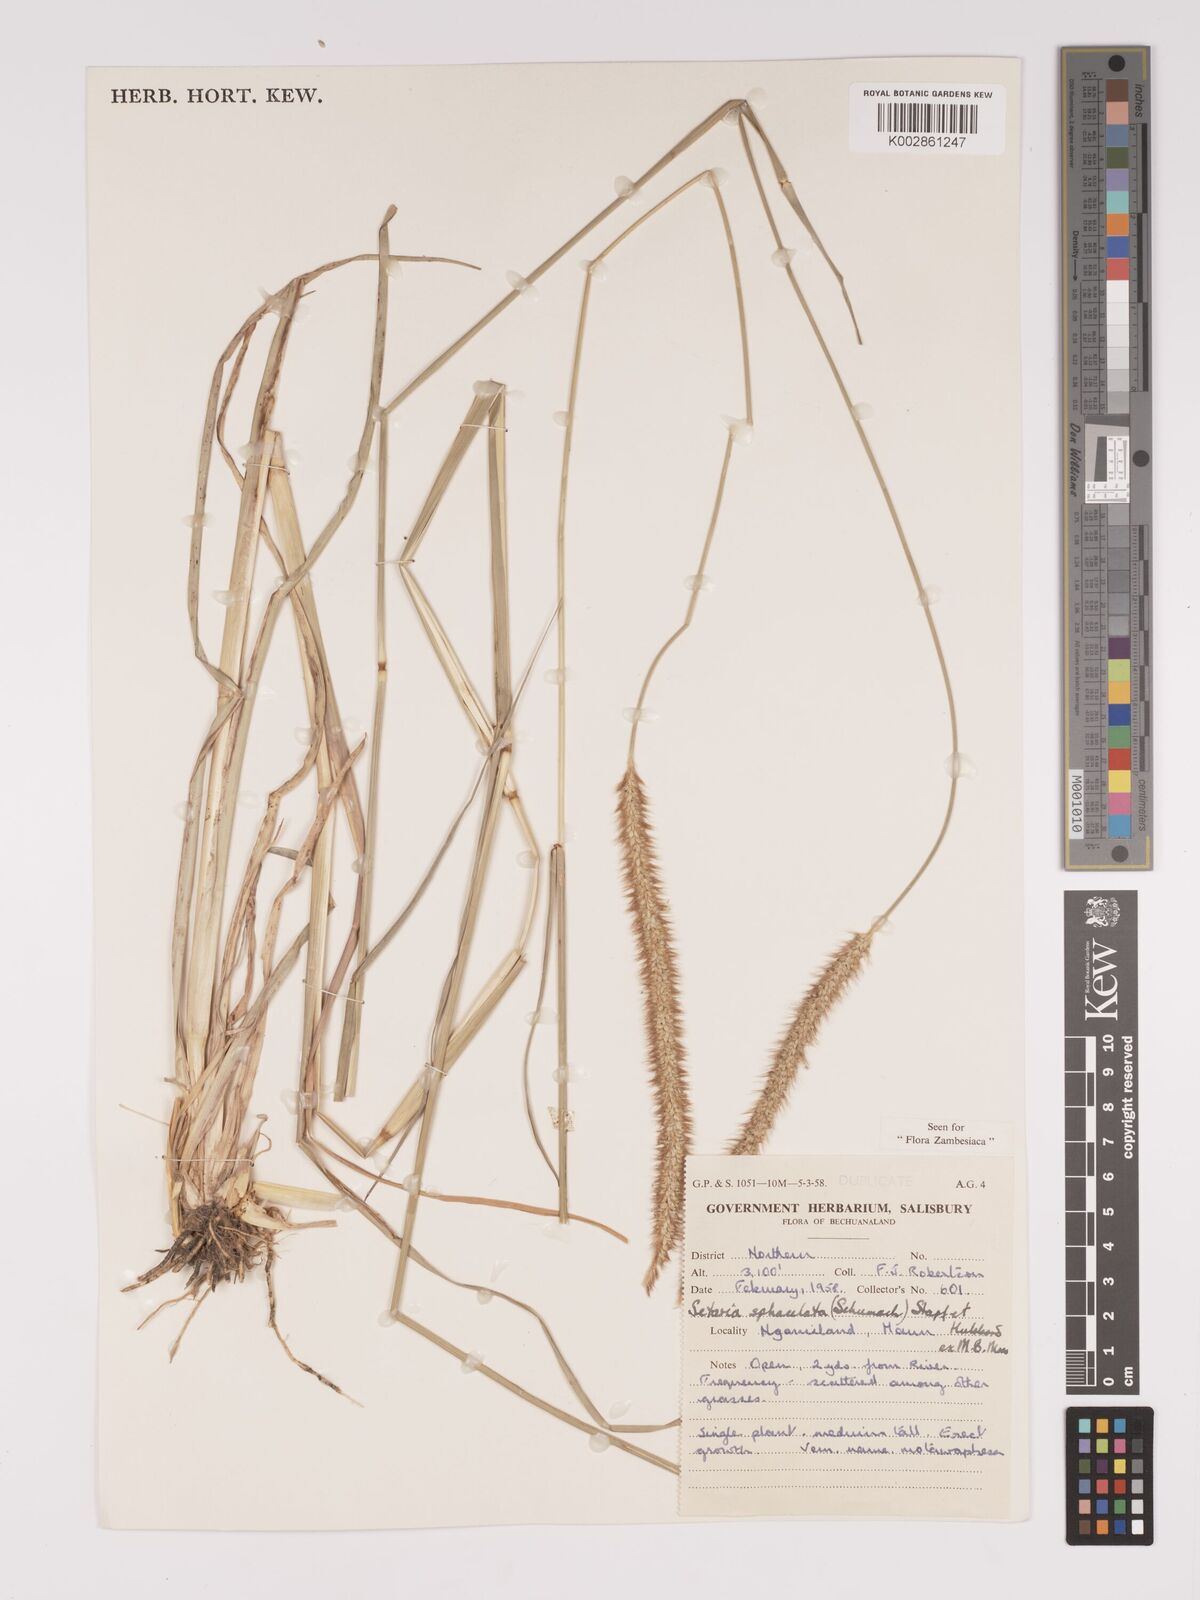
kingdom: Plantae
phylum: Tracheophyta
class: Liliopsida
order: Poales
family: Poaceae
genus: Setaria
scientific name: Setaria sphacelata
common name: African bristlegrass
